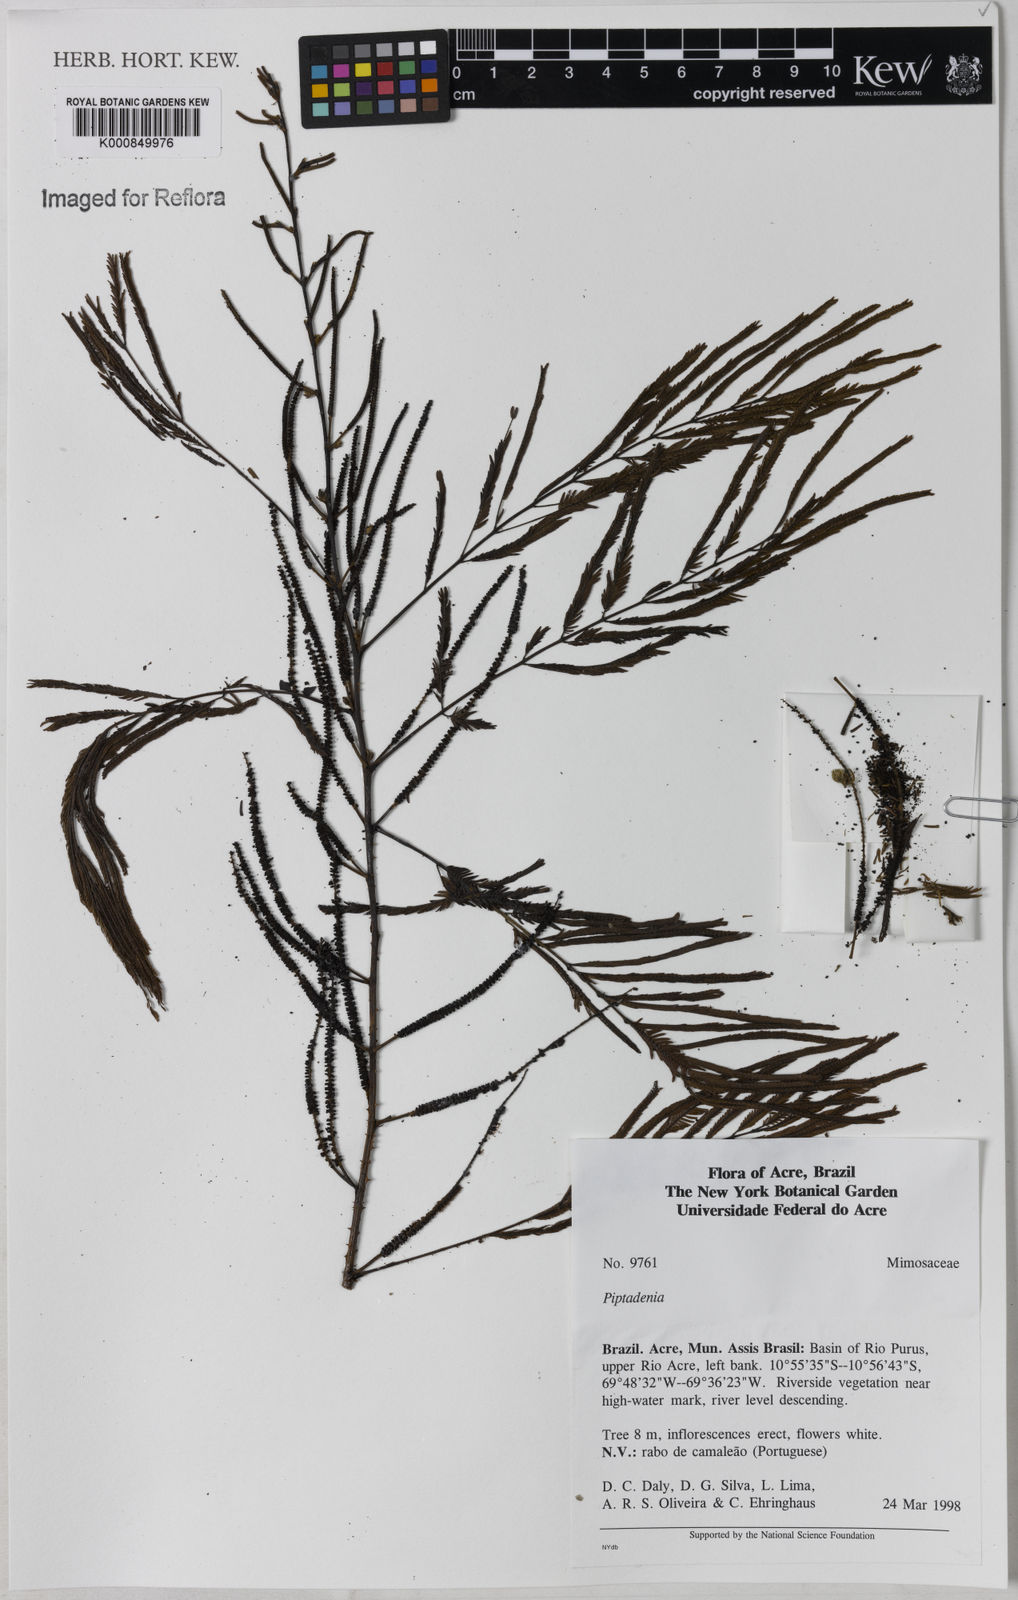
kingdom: Plantae
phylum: Tracheophyta
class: Magnoliopsida
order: Fabales
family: Fabaceae
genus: Piptadenia
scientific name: Piptadenia
